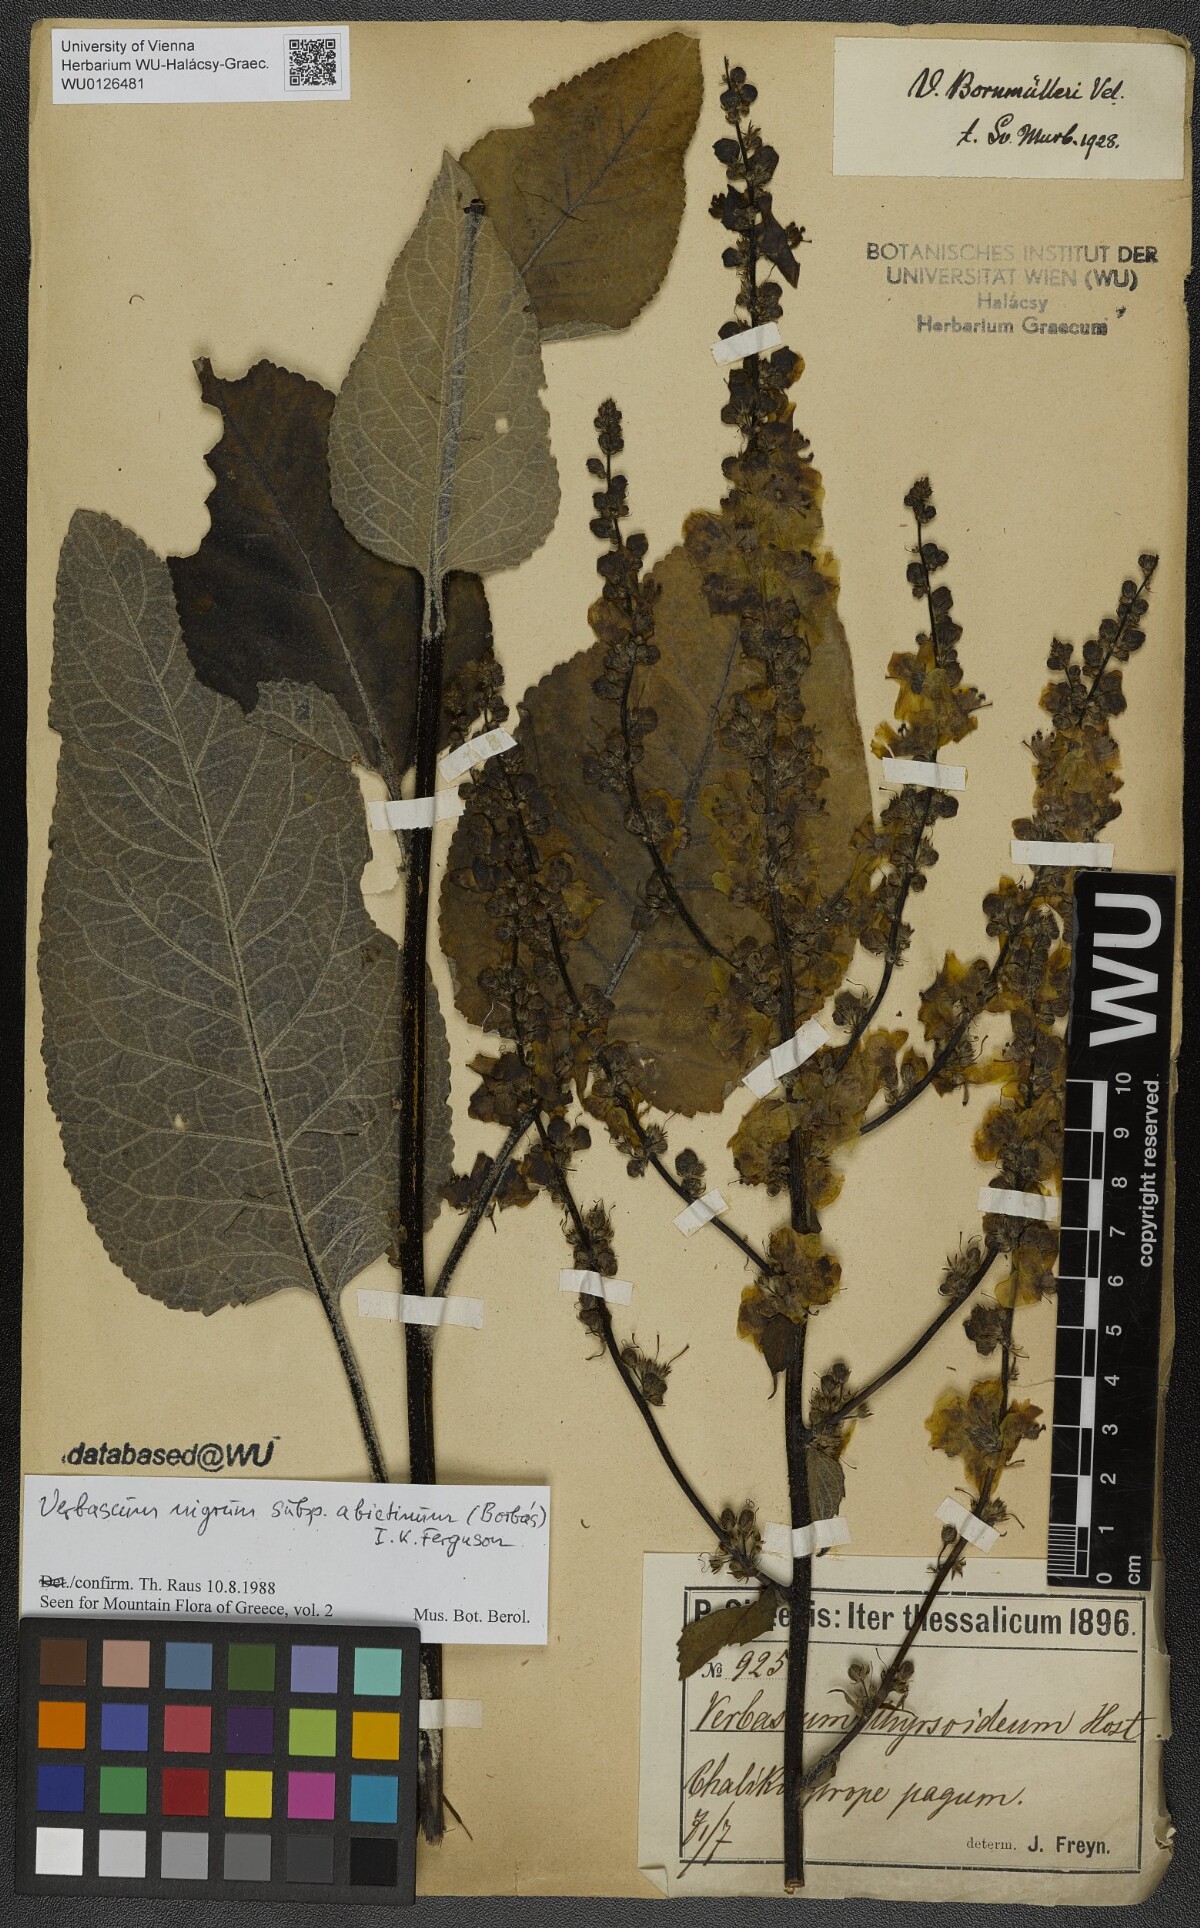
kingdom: Plantae
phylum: Tracheophyta
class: Magnoliopsida
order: Lamiales
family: Scrophulariaceae
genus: Verbascum
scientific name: Verbascum nigrum
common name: Dark mullein
